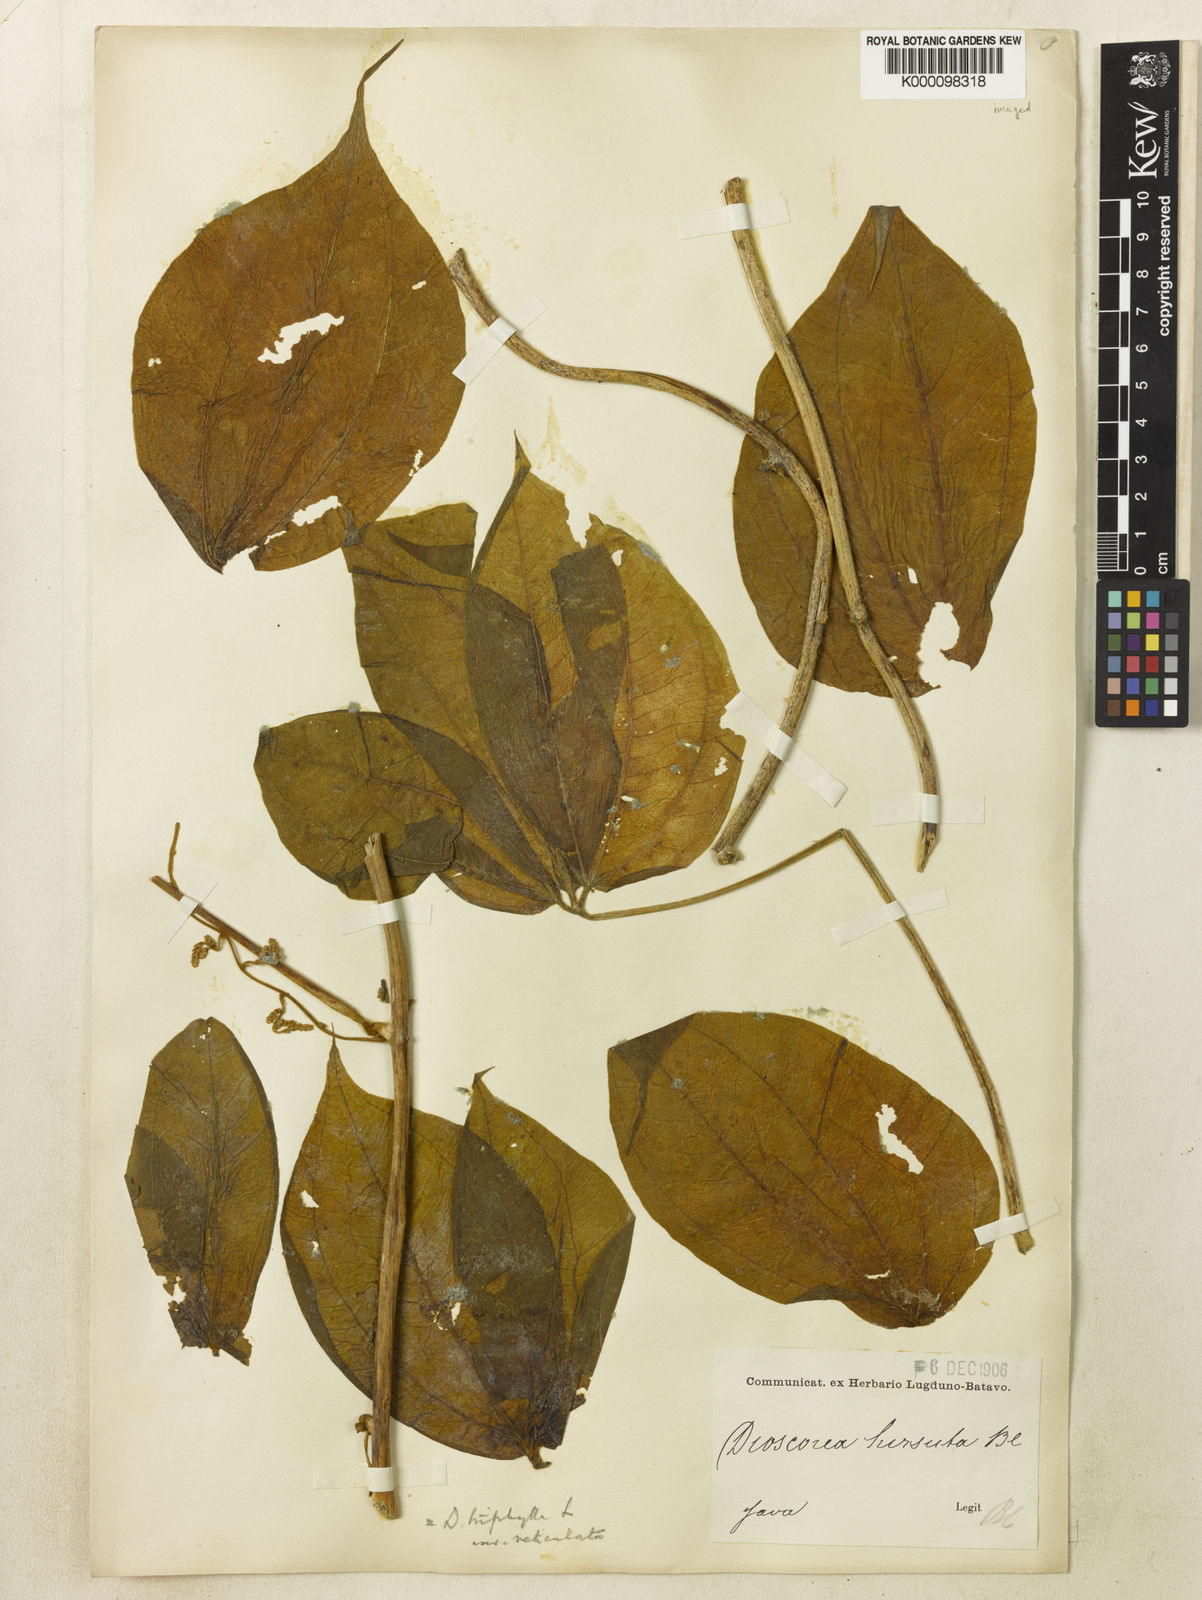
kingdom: Plantae
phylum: Tracheophyta
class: Liliopsida
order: Dioscoreales
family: Dioscoreaceae
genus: Dioscorea
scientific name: Dioscorea hispida
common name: Asiatic bitter yam
